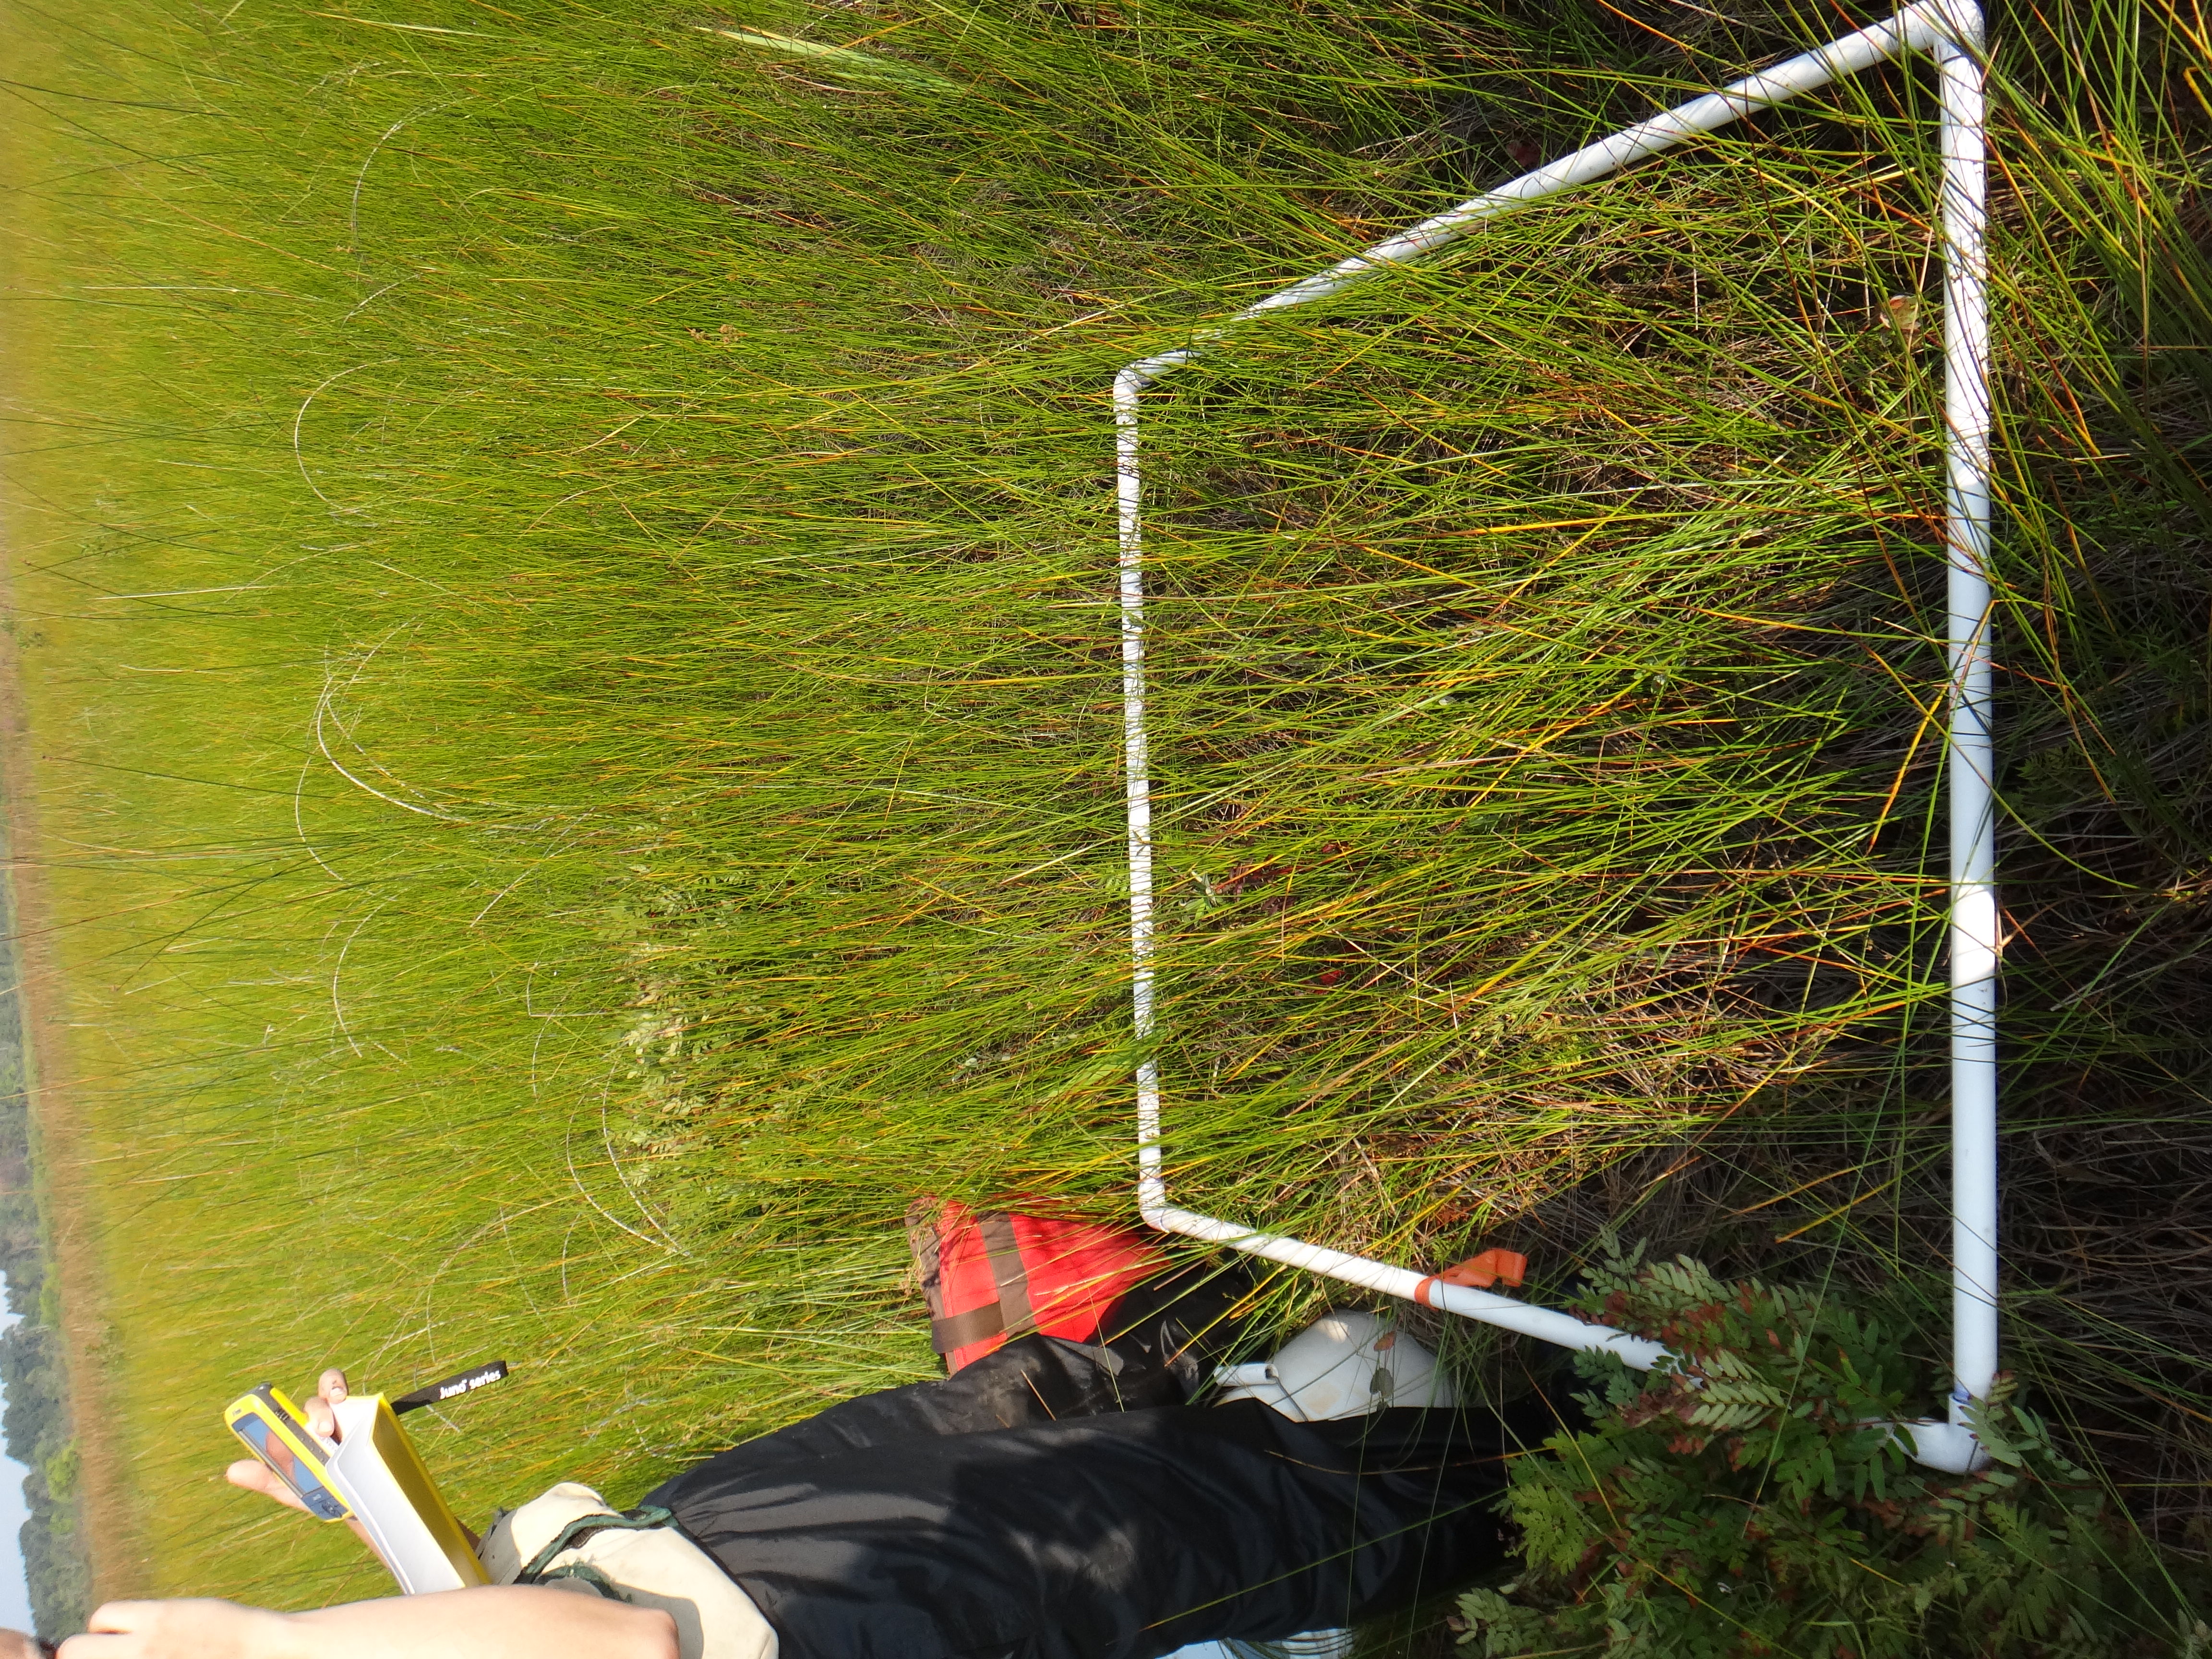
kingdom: Plantae
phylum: Tracheophyta
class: Magnoliopsida
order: Ericales
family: Primulaceae
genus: Lysimachia
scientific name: Lysimachia quadriflora
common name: Four-flowered loosestrife
